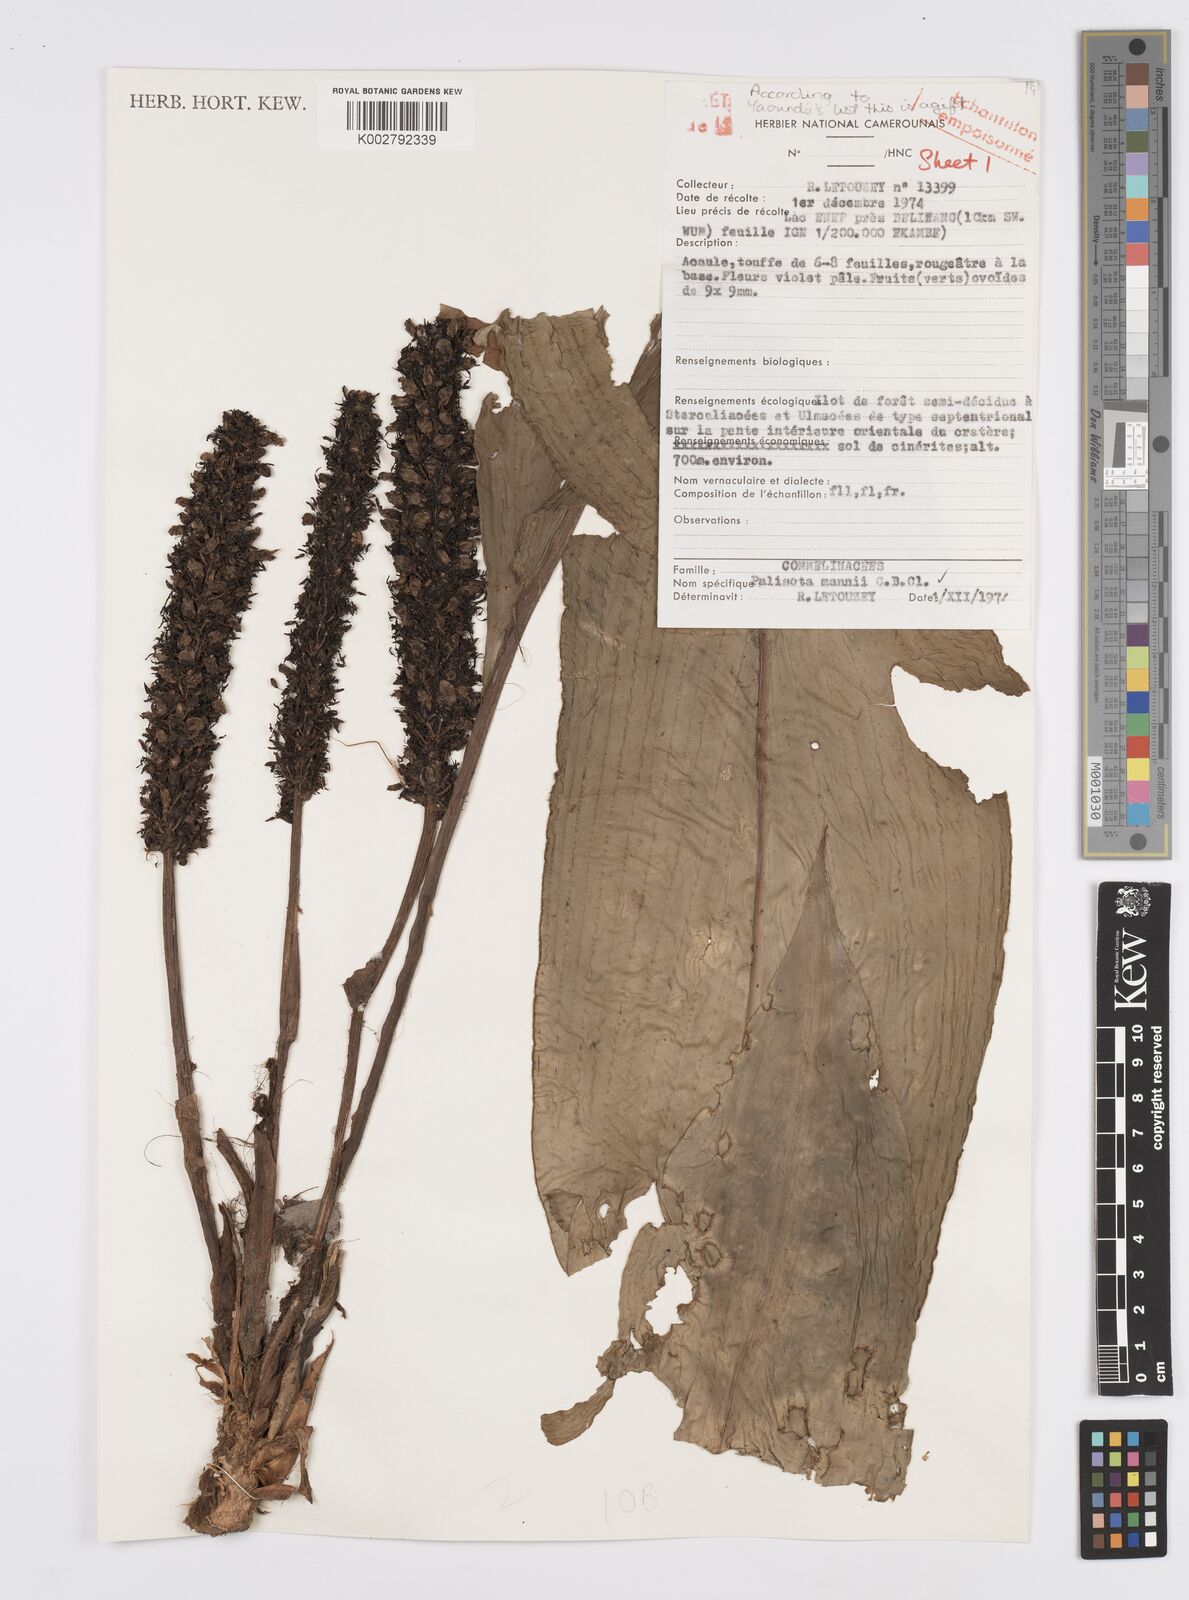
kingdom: Plantae
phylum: Tracheophyta
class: Liliopsida
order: Commelinales
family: Commelinaceae
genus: Palisota
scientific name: Palisota mannii
